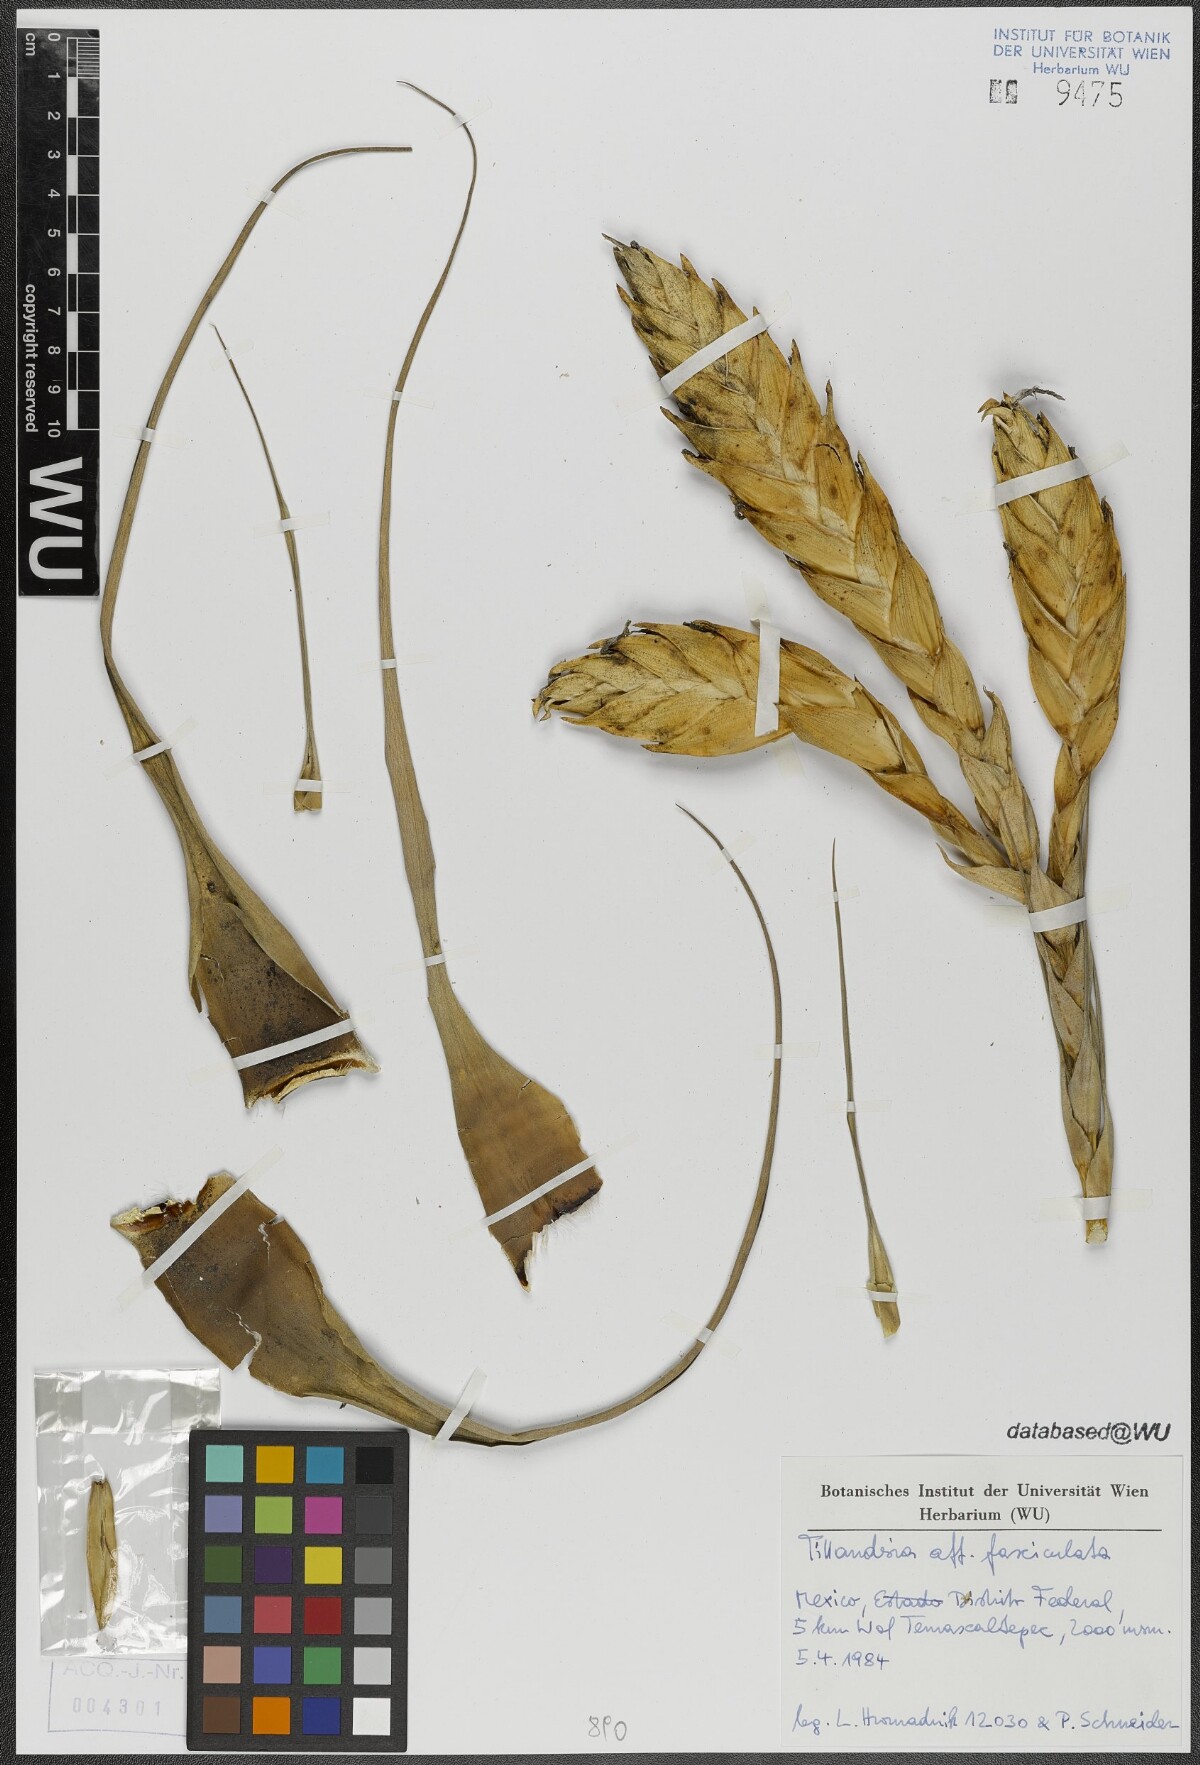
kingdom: Plantae
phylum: Tracheophyta
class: Liliopsida
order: Poales
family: Bromeliaceae
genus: Tillandsia
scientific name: Tillandsia fasciculata
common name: Giant airplant
